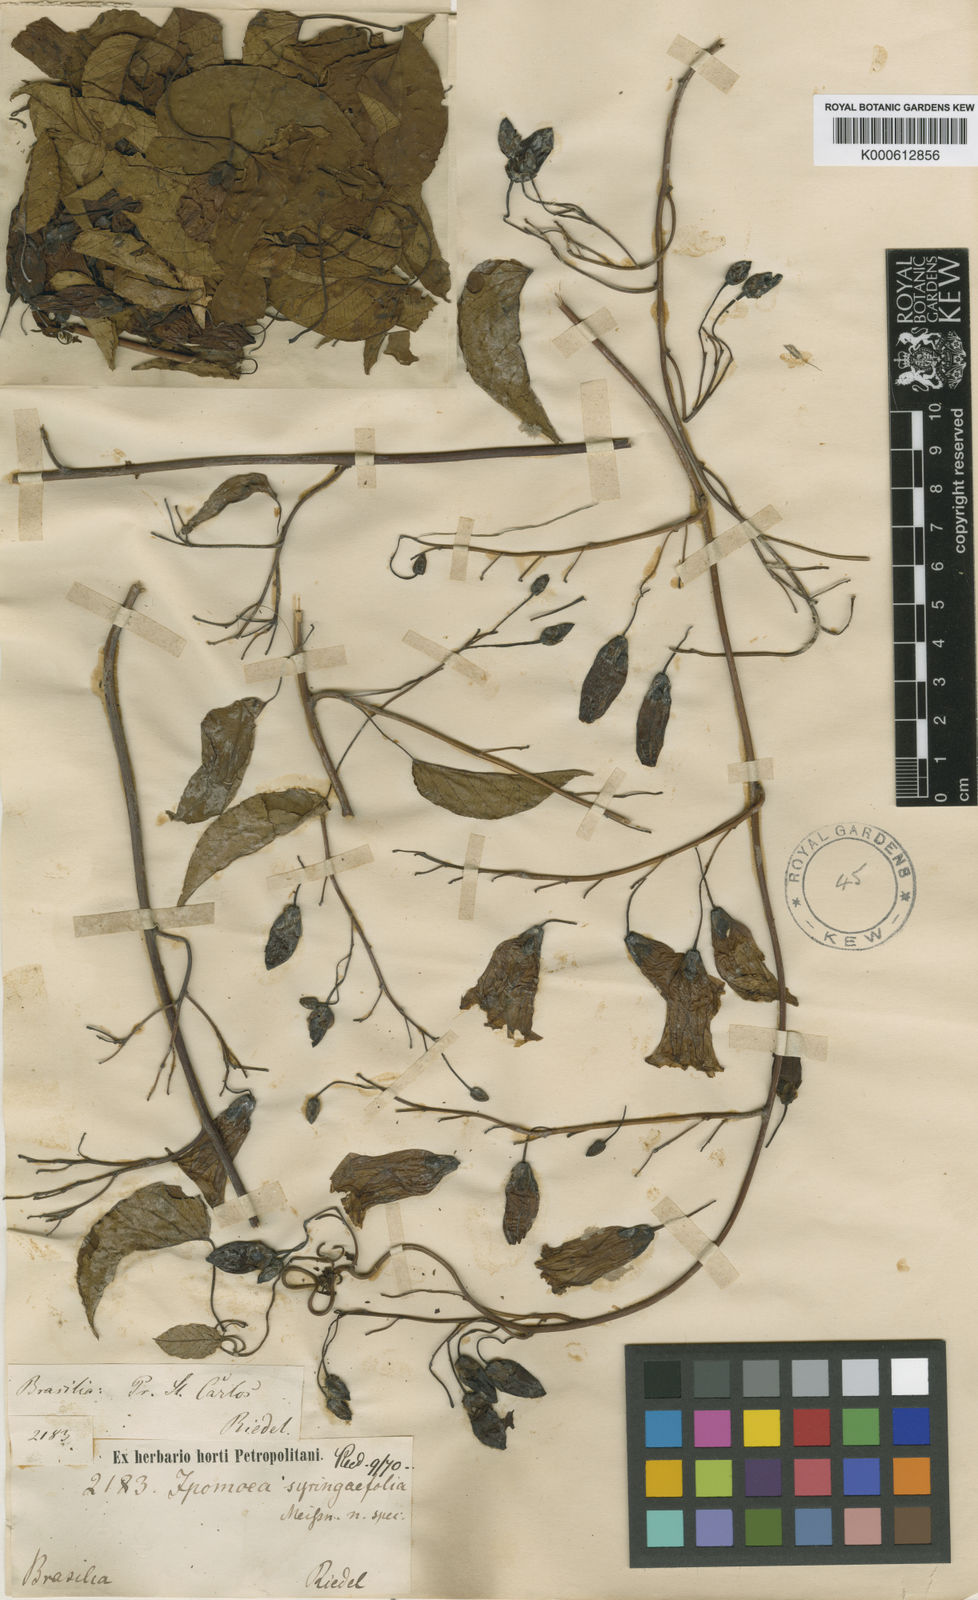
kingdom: Plantae
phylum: Tracheophyta
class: Magnoliopsida
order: Solanales
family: Convolvulaceae
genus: Ipomoea
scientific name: Ipomoea syringifolia
